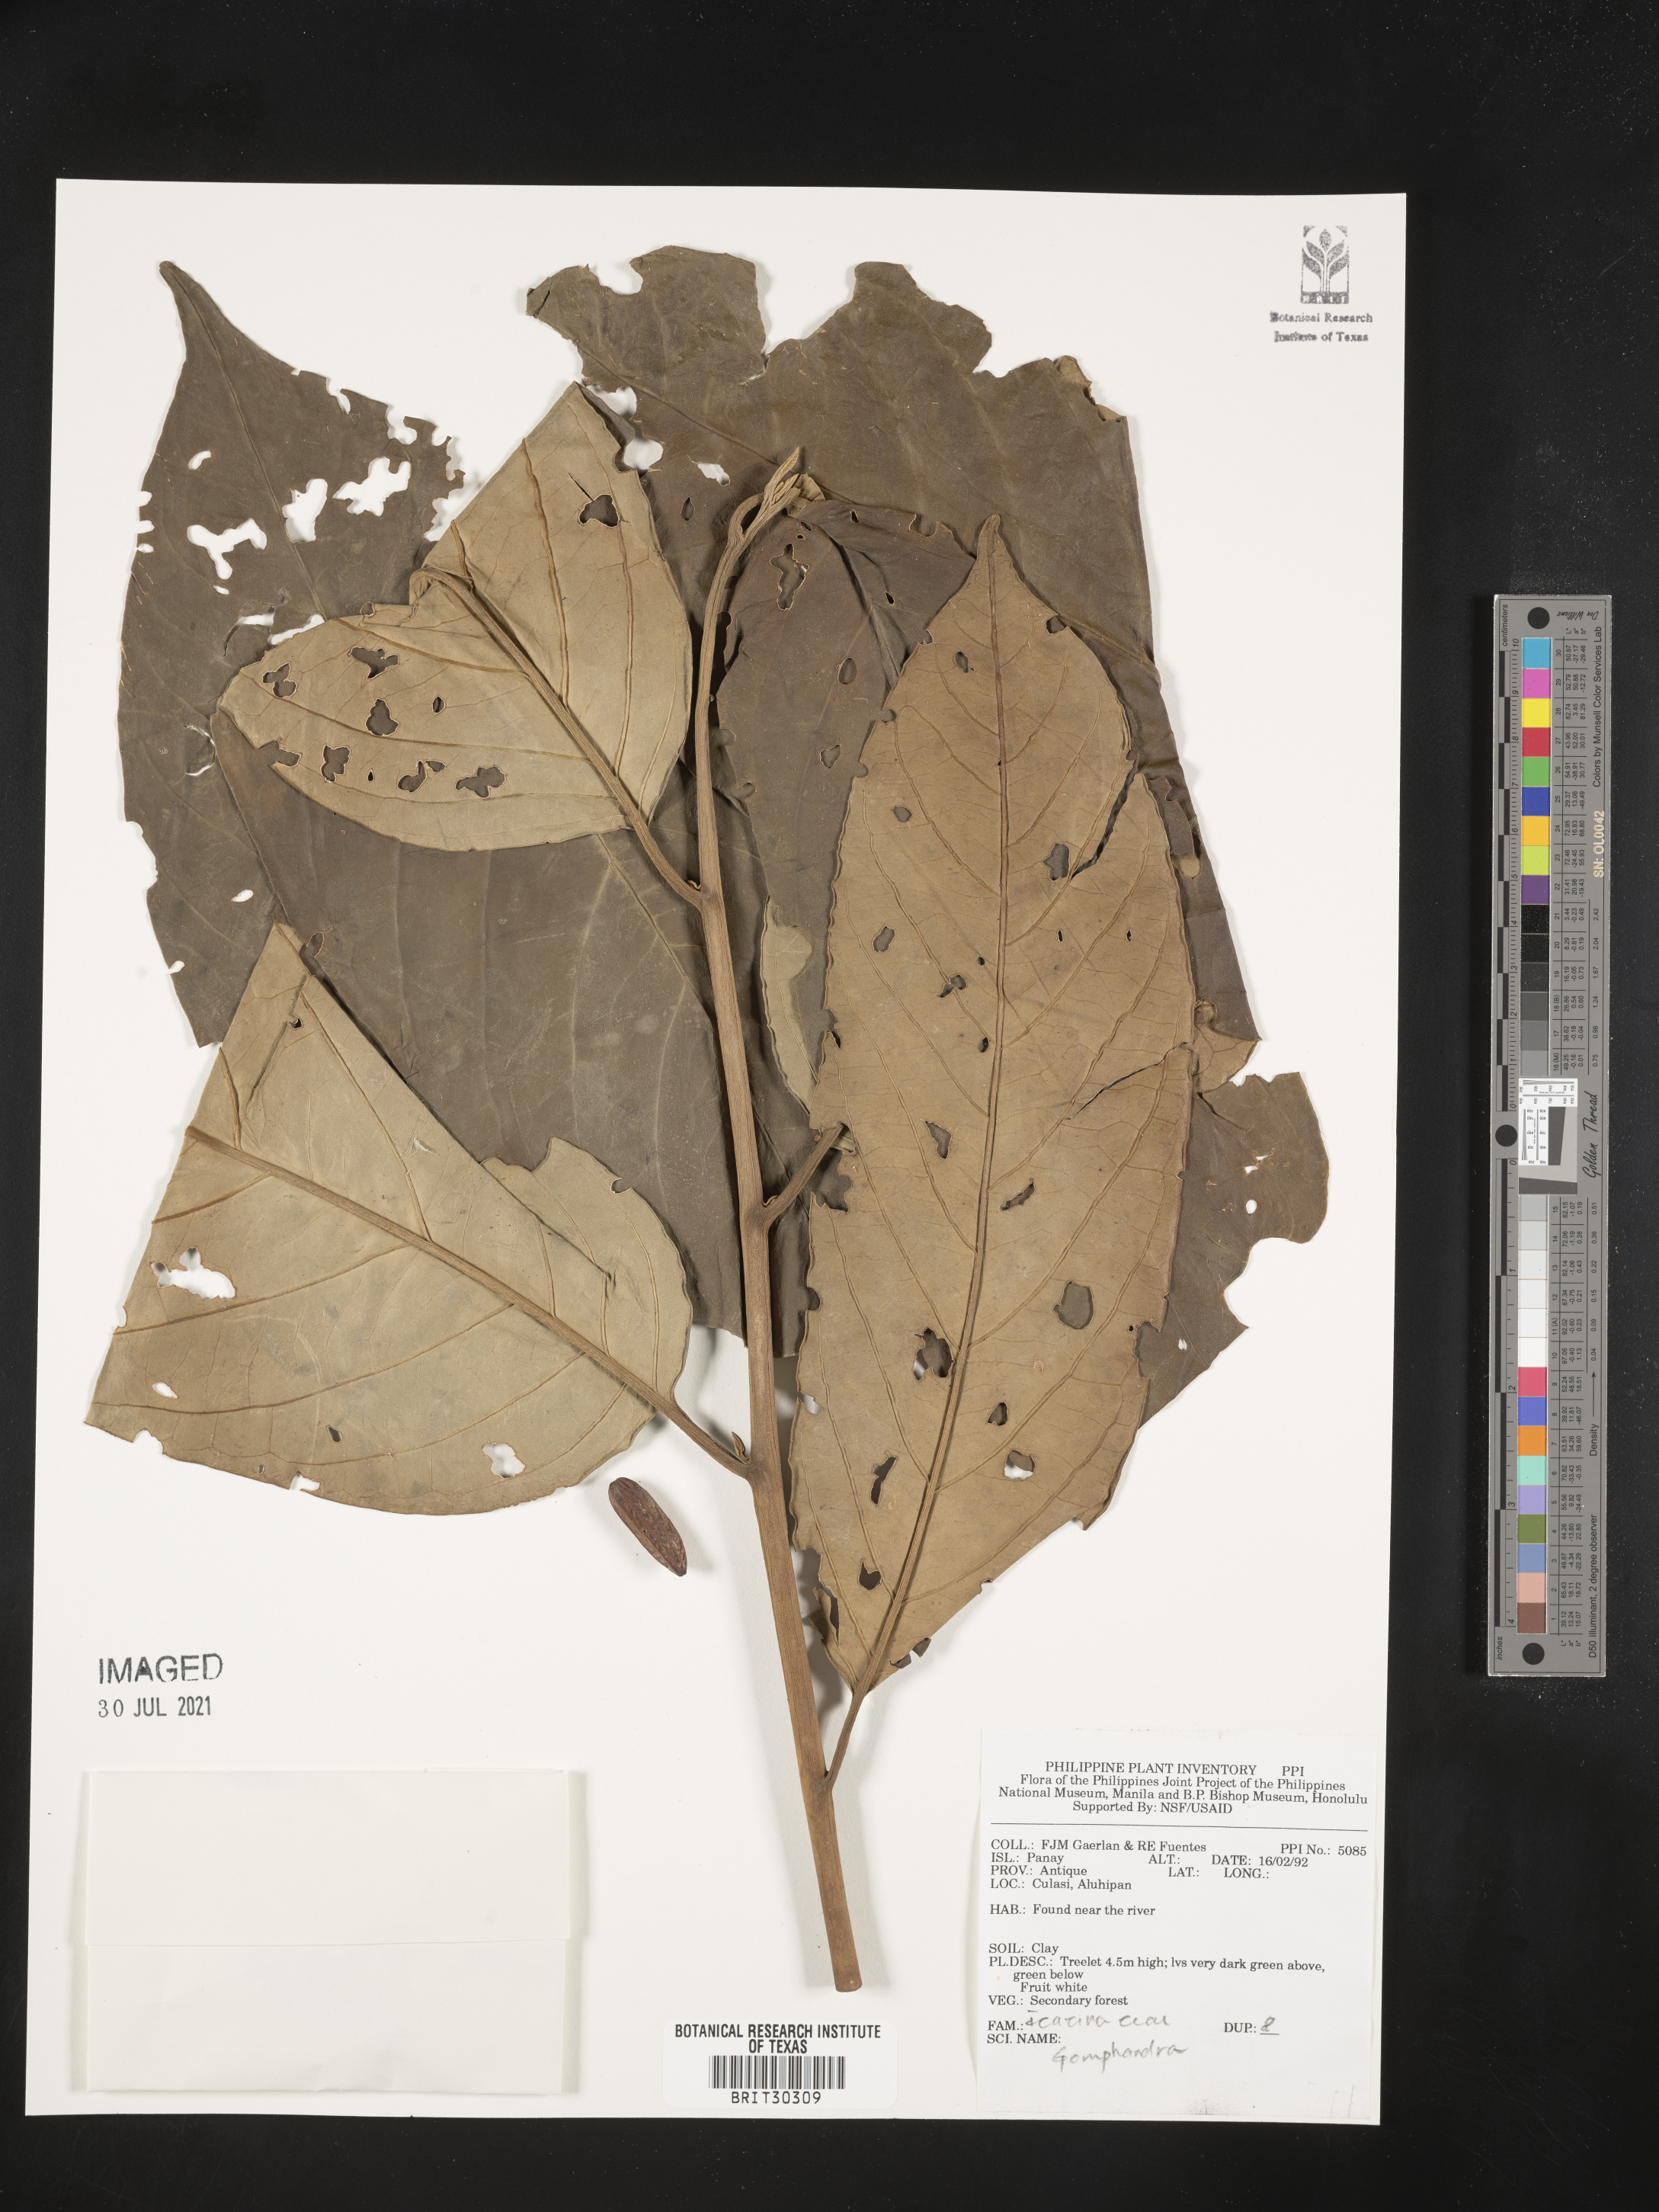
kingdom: Plantae
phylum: Tracheophyta
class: Magnoliopsida
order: Cardiopteridales
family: Stemonuraceae
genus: Gomphandra
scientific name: Gomphandra
